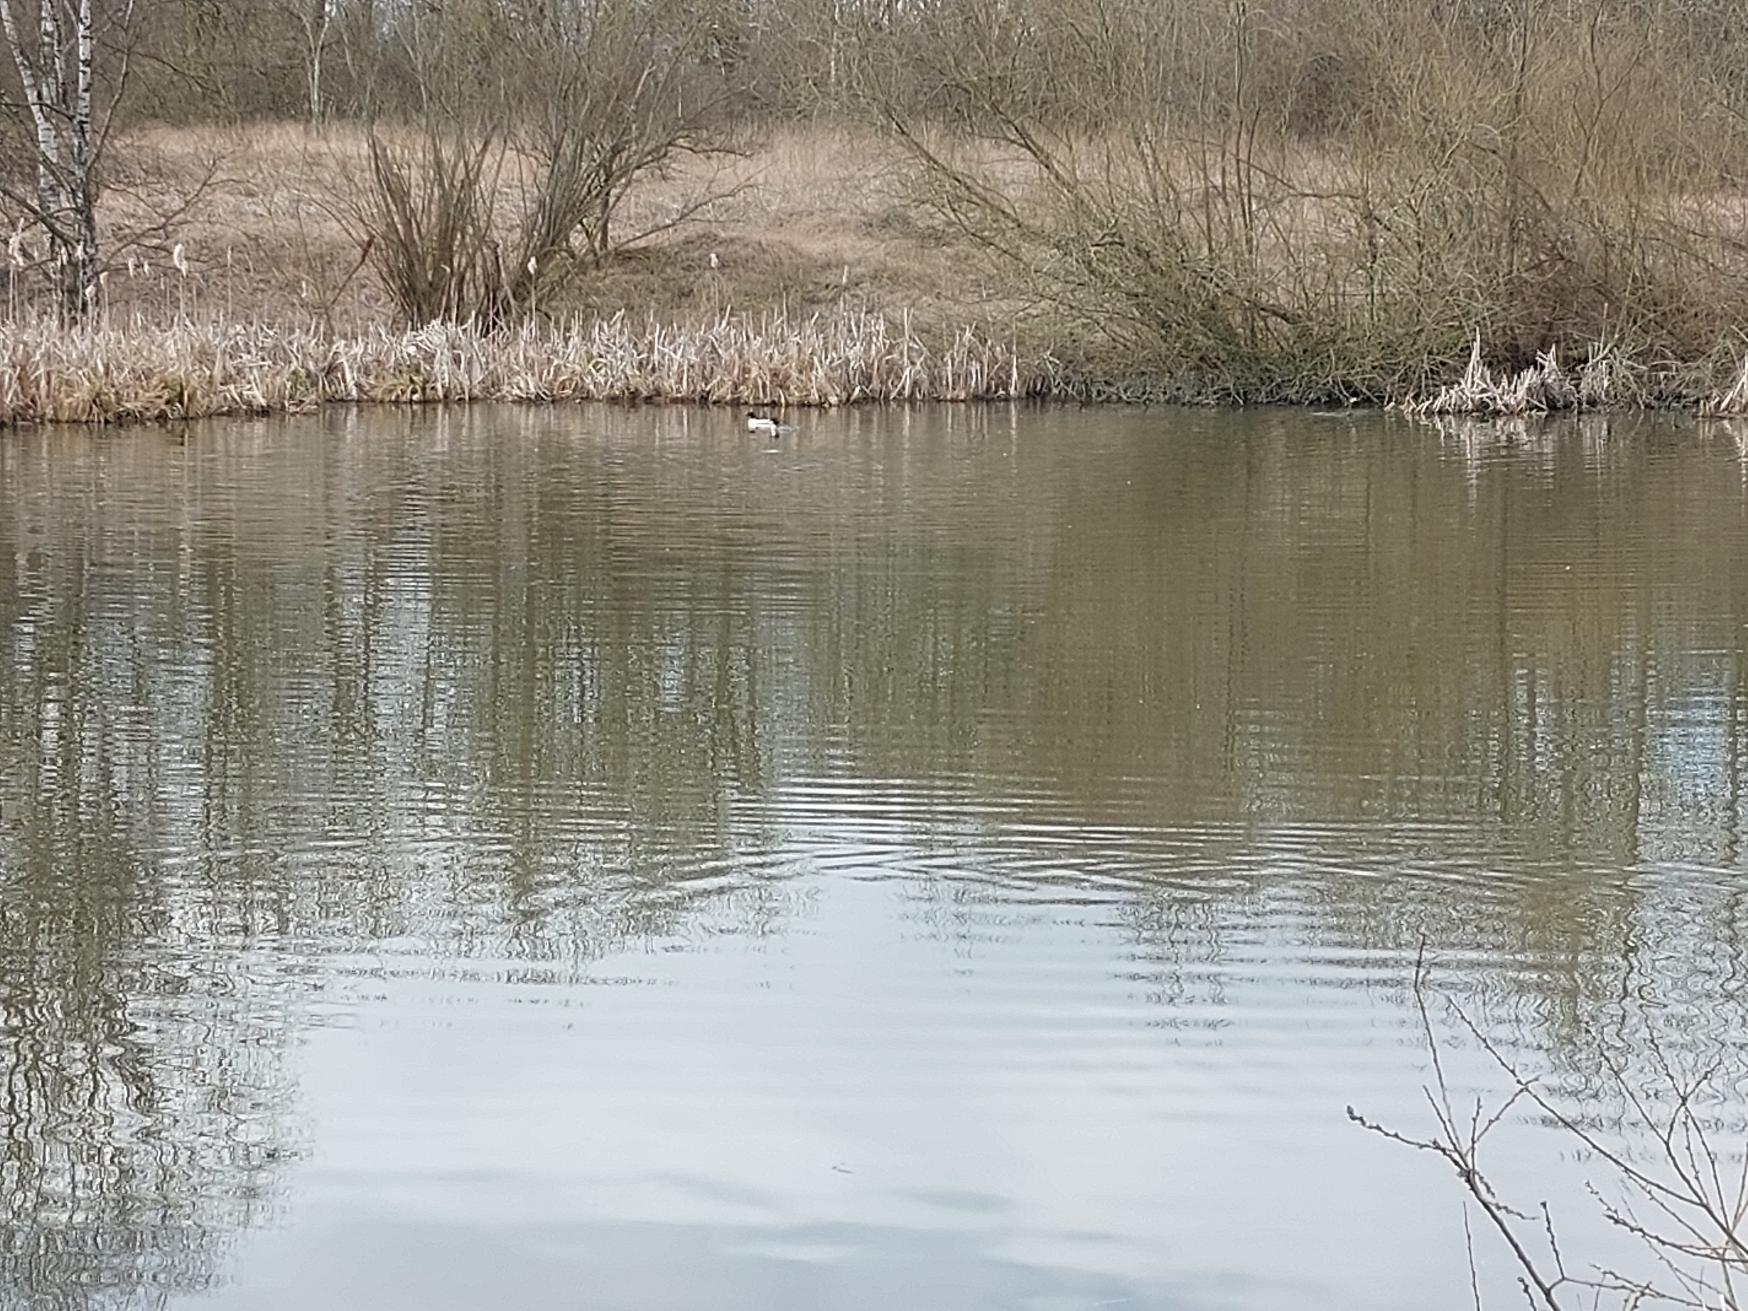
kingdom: Animalia
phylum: Chordata
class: Aves
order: Anseriformes
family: Anatidae
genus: Mergus
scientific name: Mergus merganser
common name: Stor skallesluger
